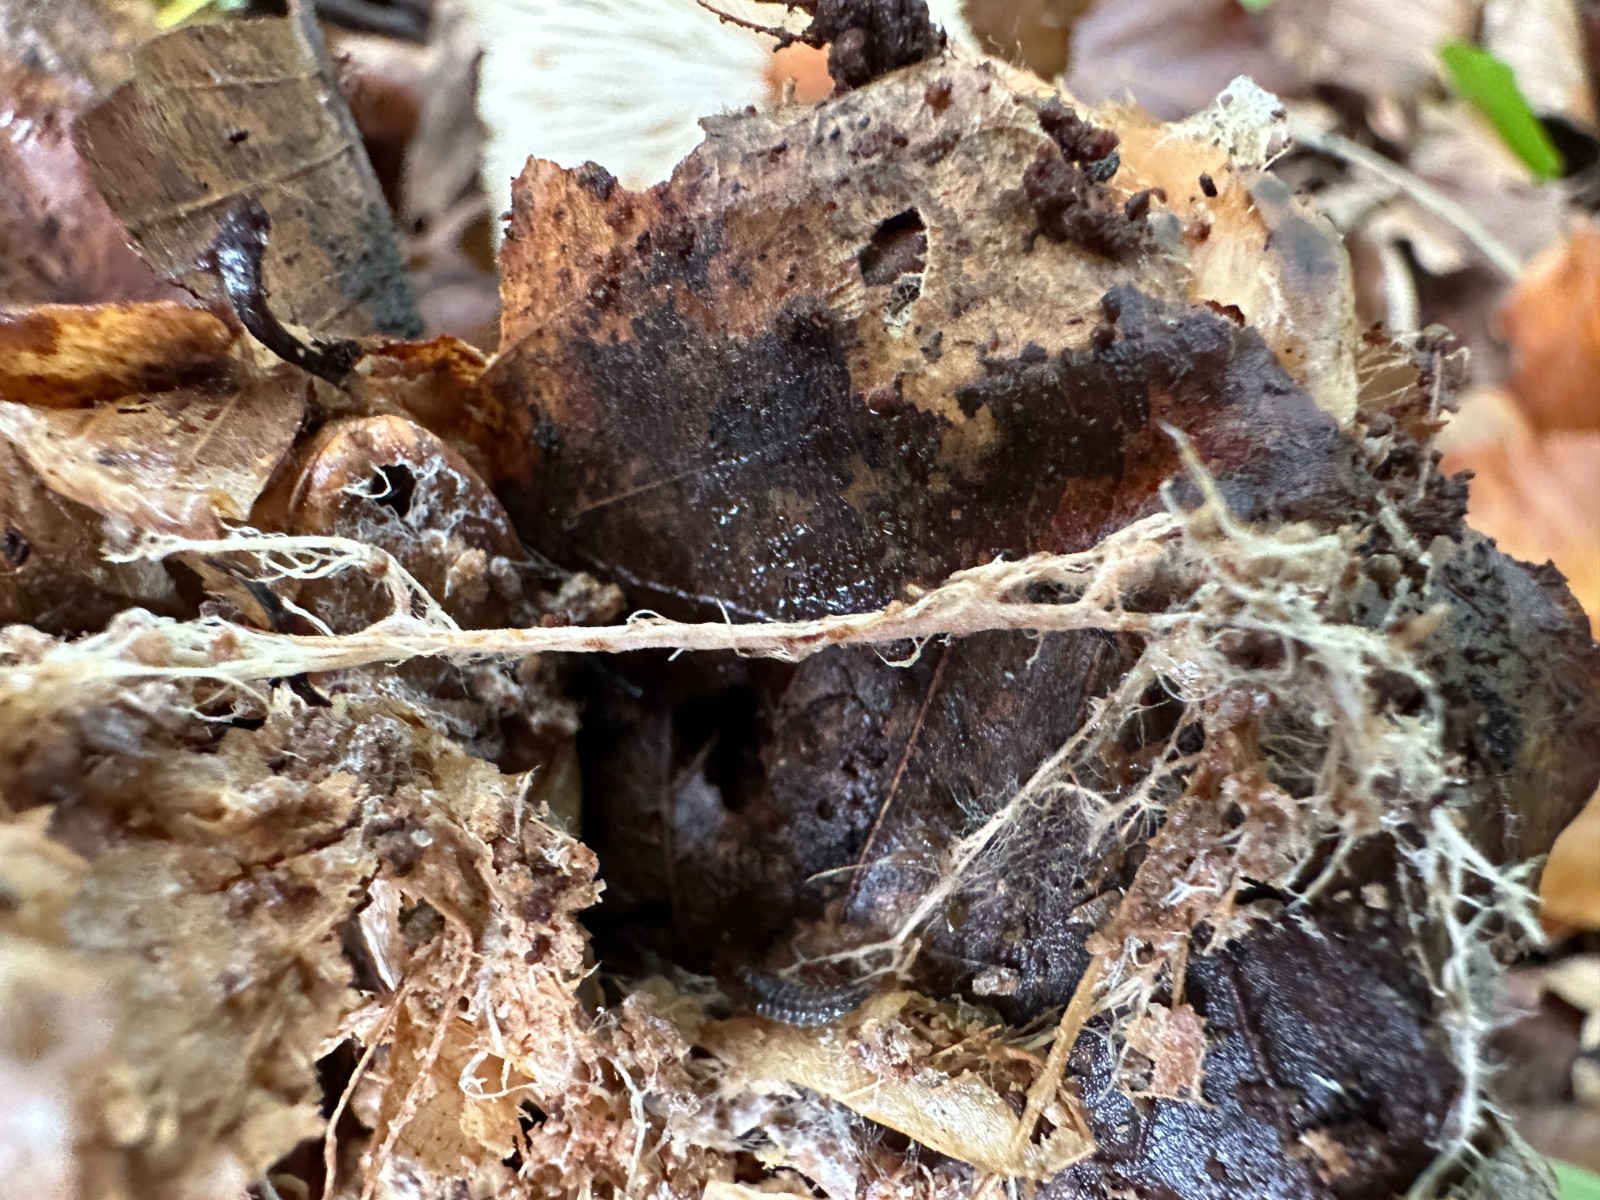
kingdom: Fungi
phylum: Basidiomycota
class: Agaricomycetes
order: Agaricales
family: Omphalotaceae
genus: Gymnopus
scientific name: Gymnopus
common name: fladhat
